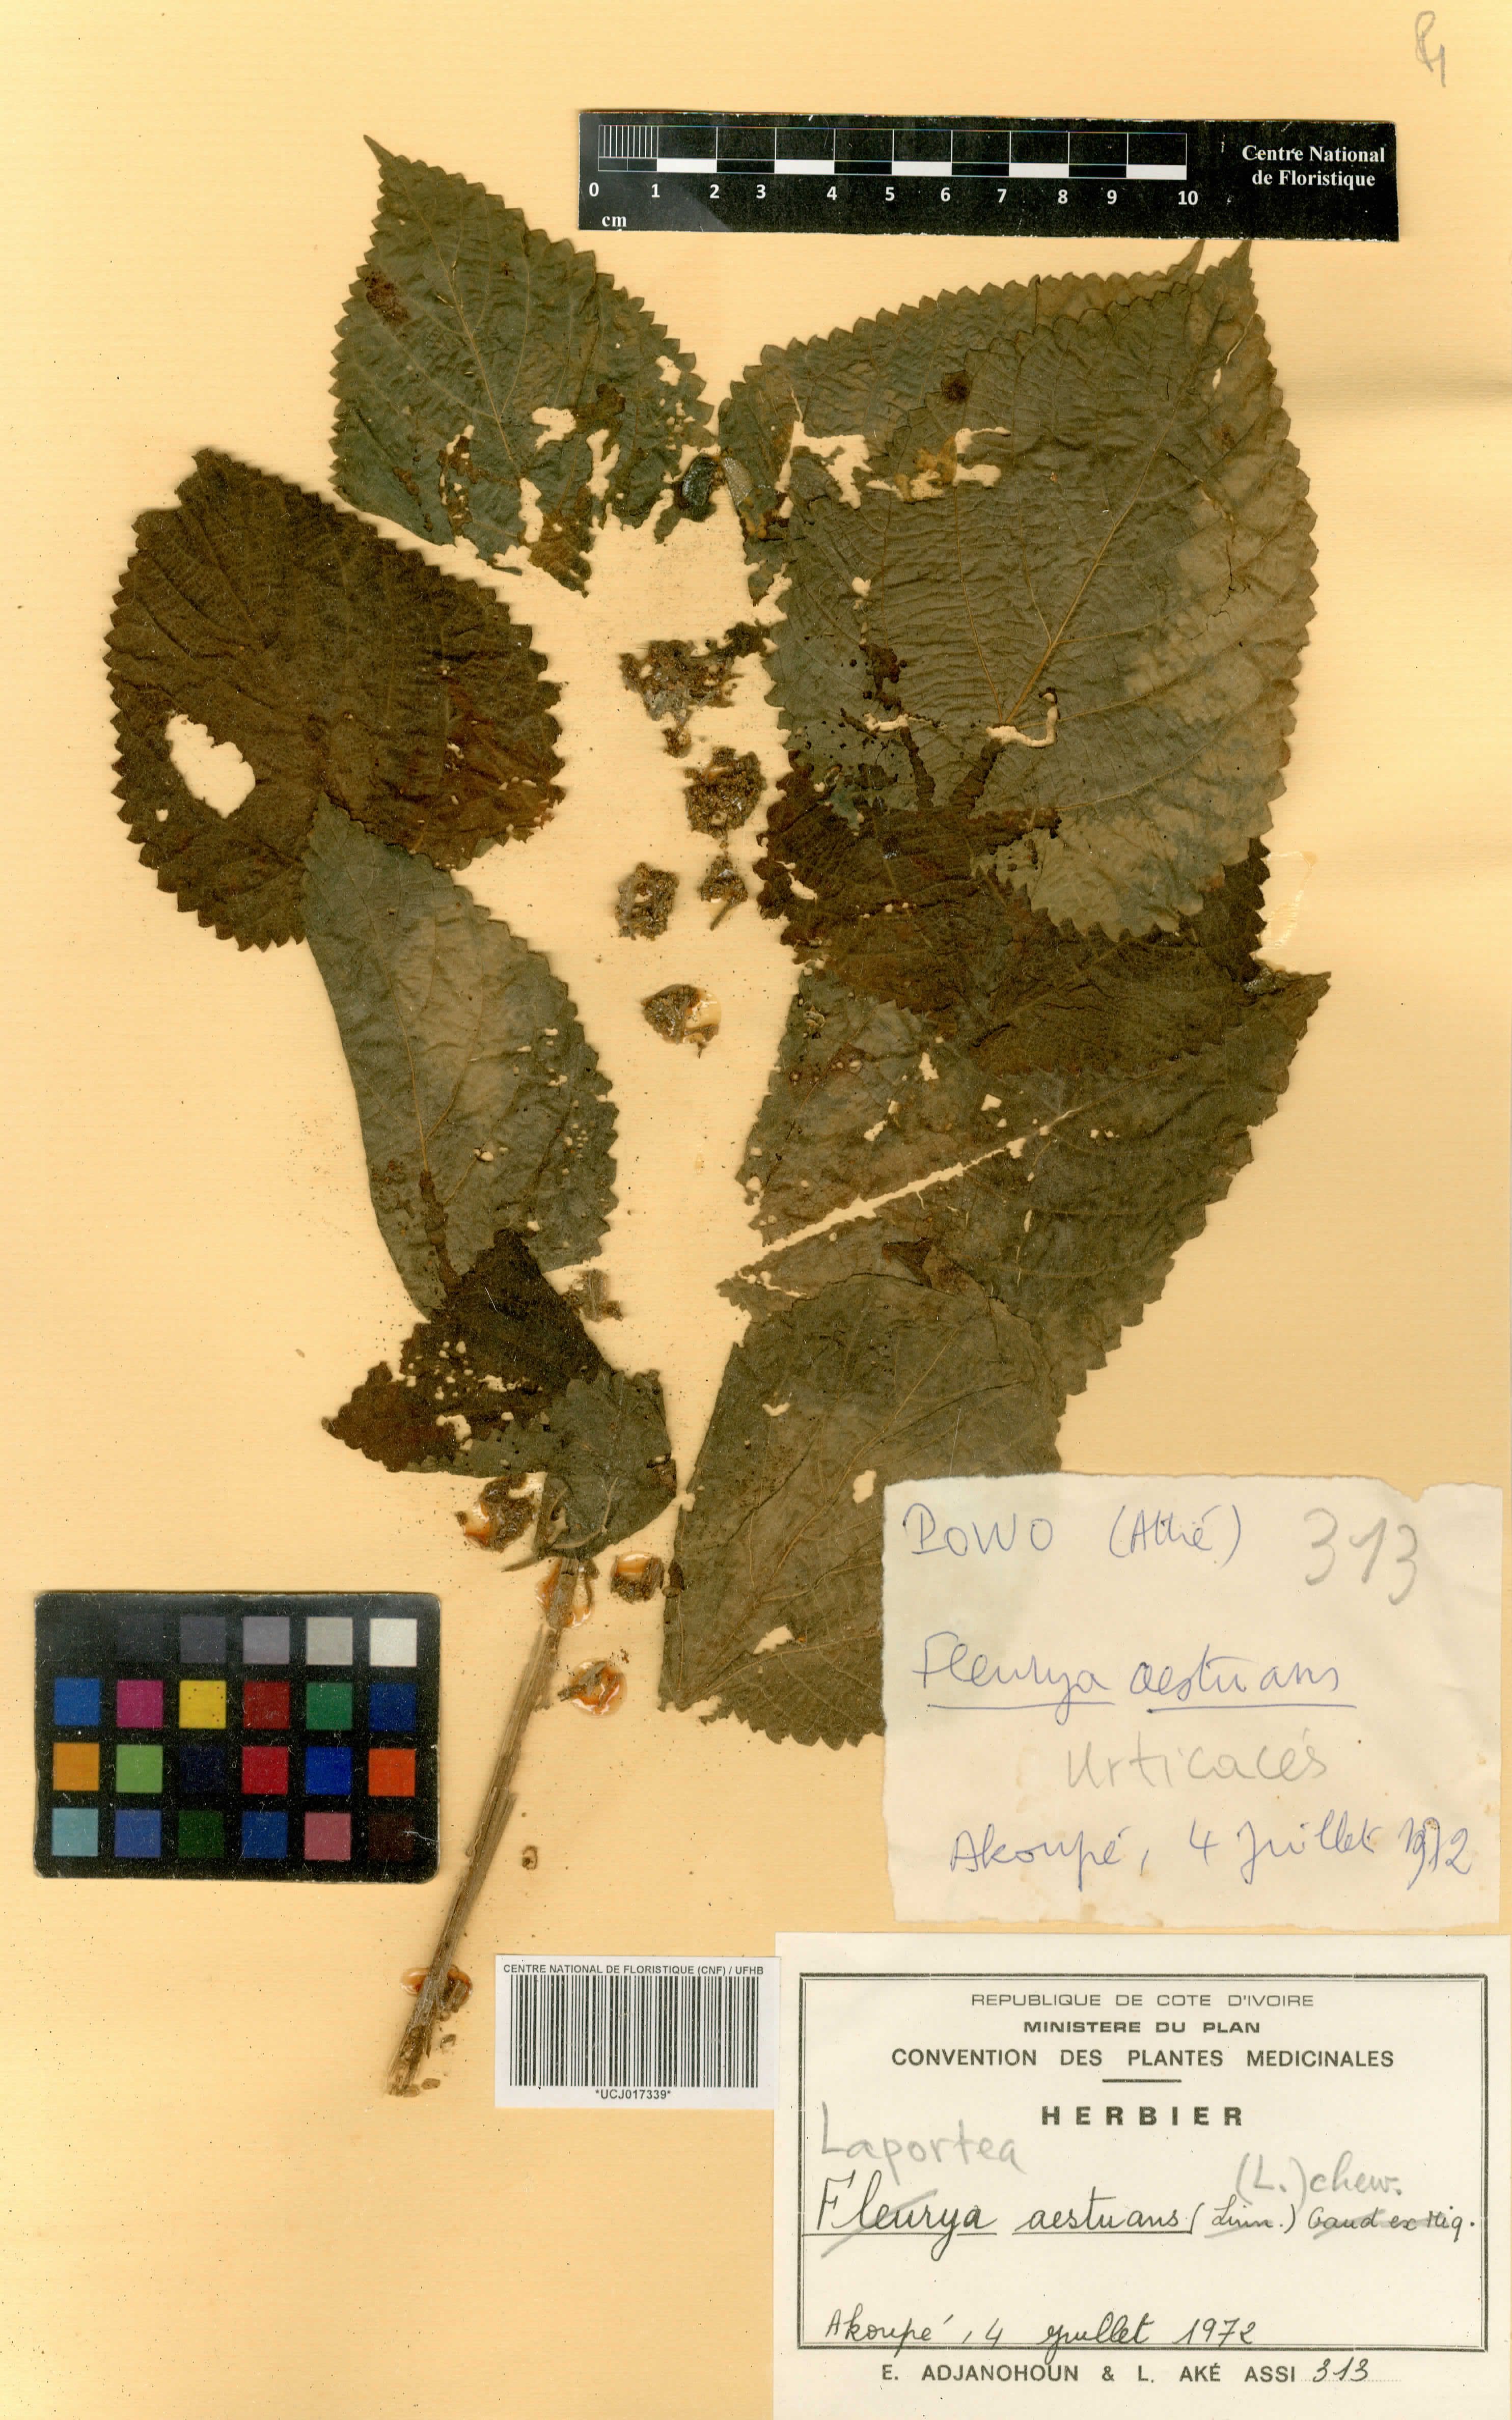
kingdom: Plantae
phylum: Tracheophyta
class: Magnoliopsida
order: Rosales
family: Urticaceae
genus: Laportea
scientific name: Laportea aestuans
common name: West indian woodnettle
